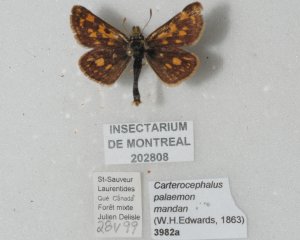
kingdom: Animalia
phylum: Arthropoda
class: Insecta
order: Lepidoptera
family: Hesperiidae
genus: Carterocephalus
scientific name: Carterocephalus palaemon
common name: Chequered Skipper
